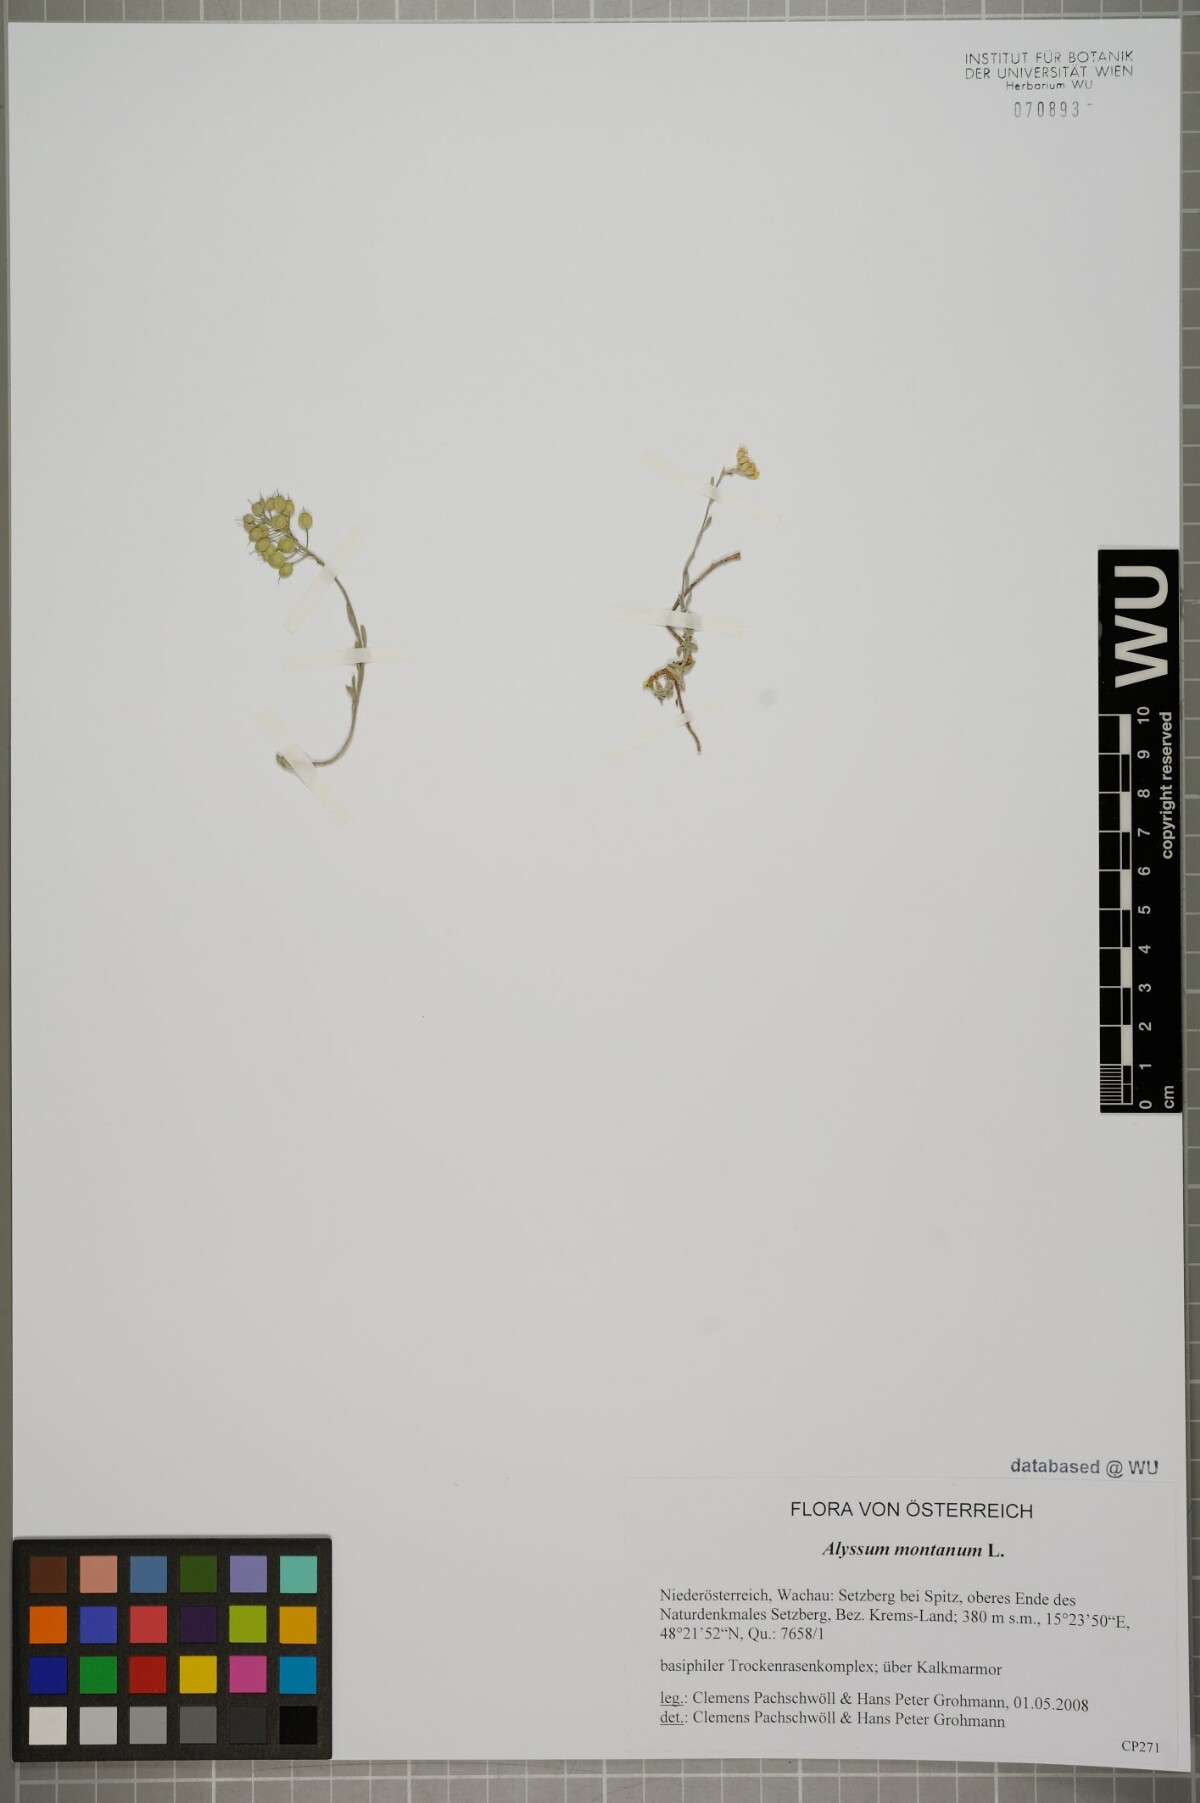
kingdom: Plantae
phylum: Tracheophyta
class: Magnoliopsida
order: Brassicales
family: Brassicaceae
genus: Alyssum
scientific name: Alyssum montanum
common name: Mountain alison
